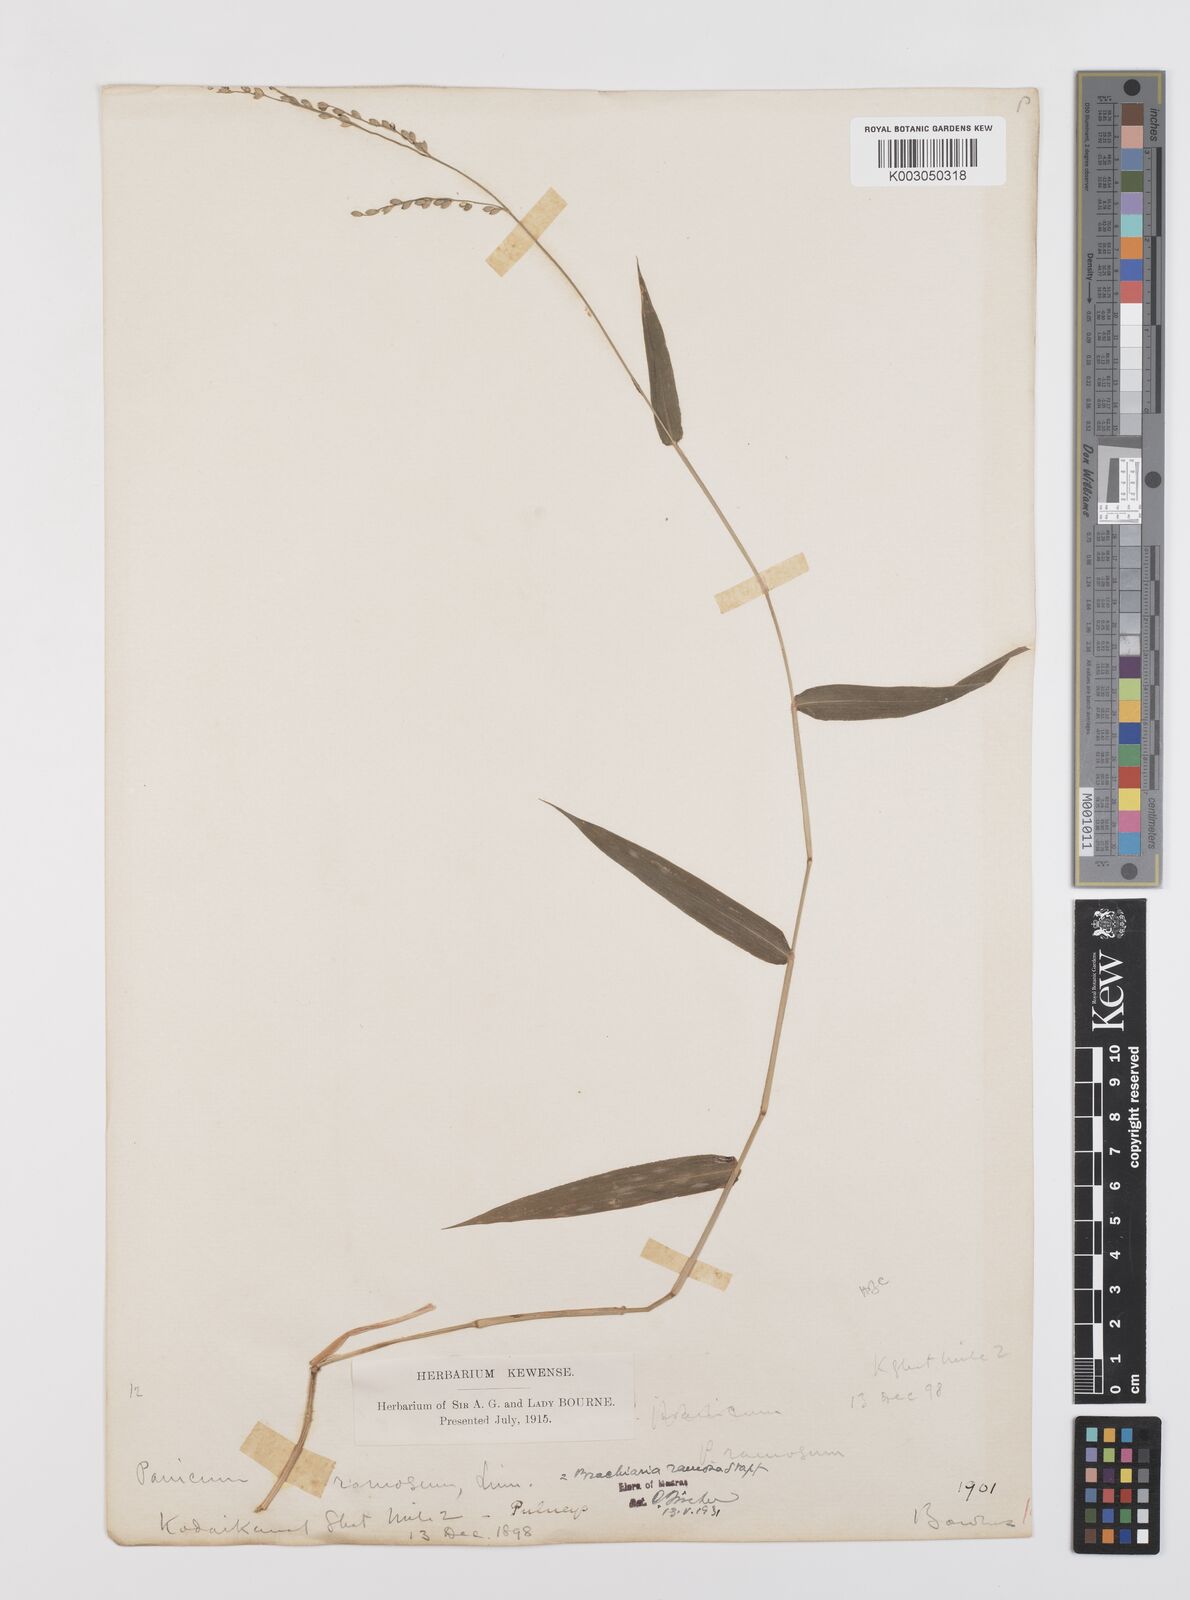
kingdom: Plantae
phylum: Tracheophyta
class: Liliopsida
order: Poales
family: Poaceae
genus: Urochloa
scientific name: Urochloa ramosa
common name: Browntop millet
